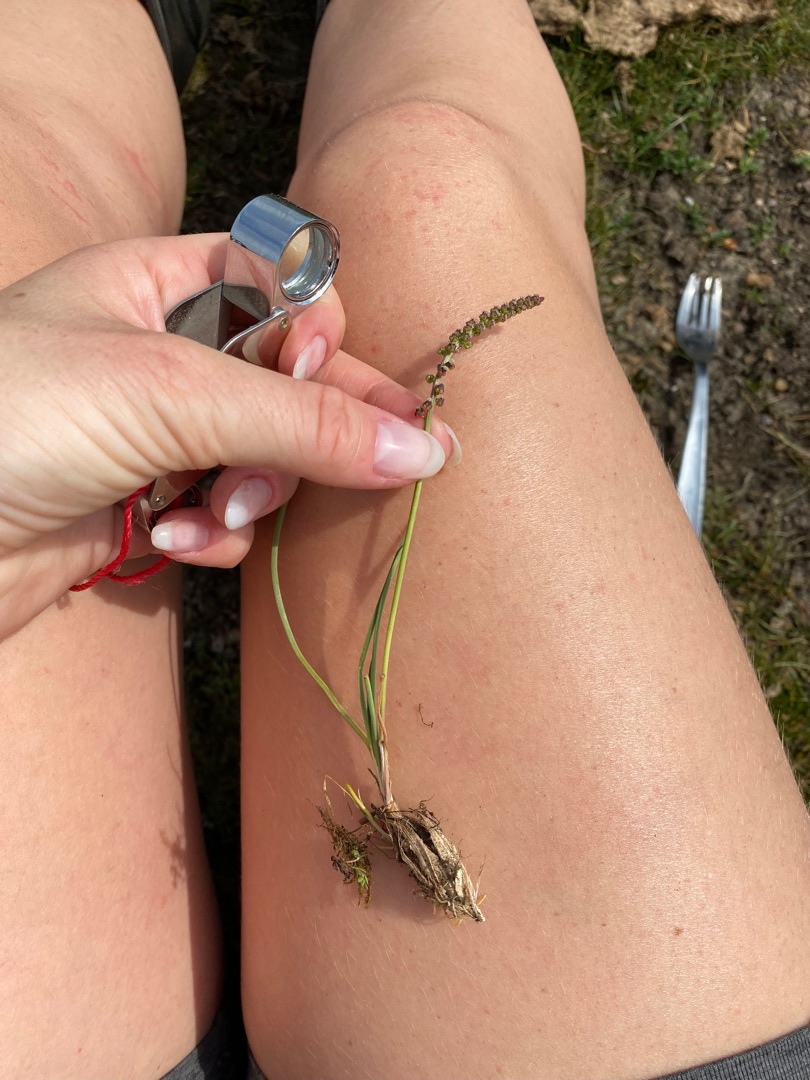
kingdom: Plantae
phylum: Tracheophyta
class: Liliopsida
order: Alismatales
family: Juncaginaceae
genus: Triglochin
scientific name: Triglochin maritima
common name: Strand-trehage
